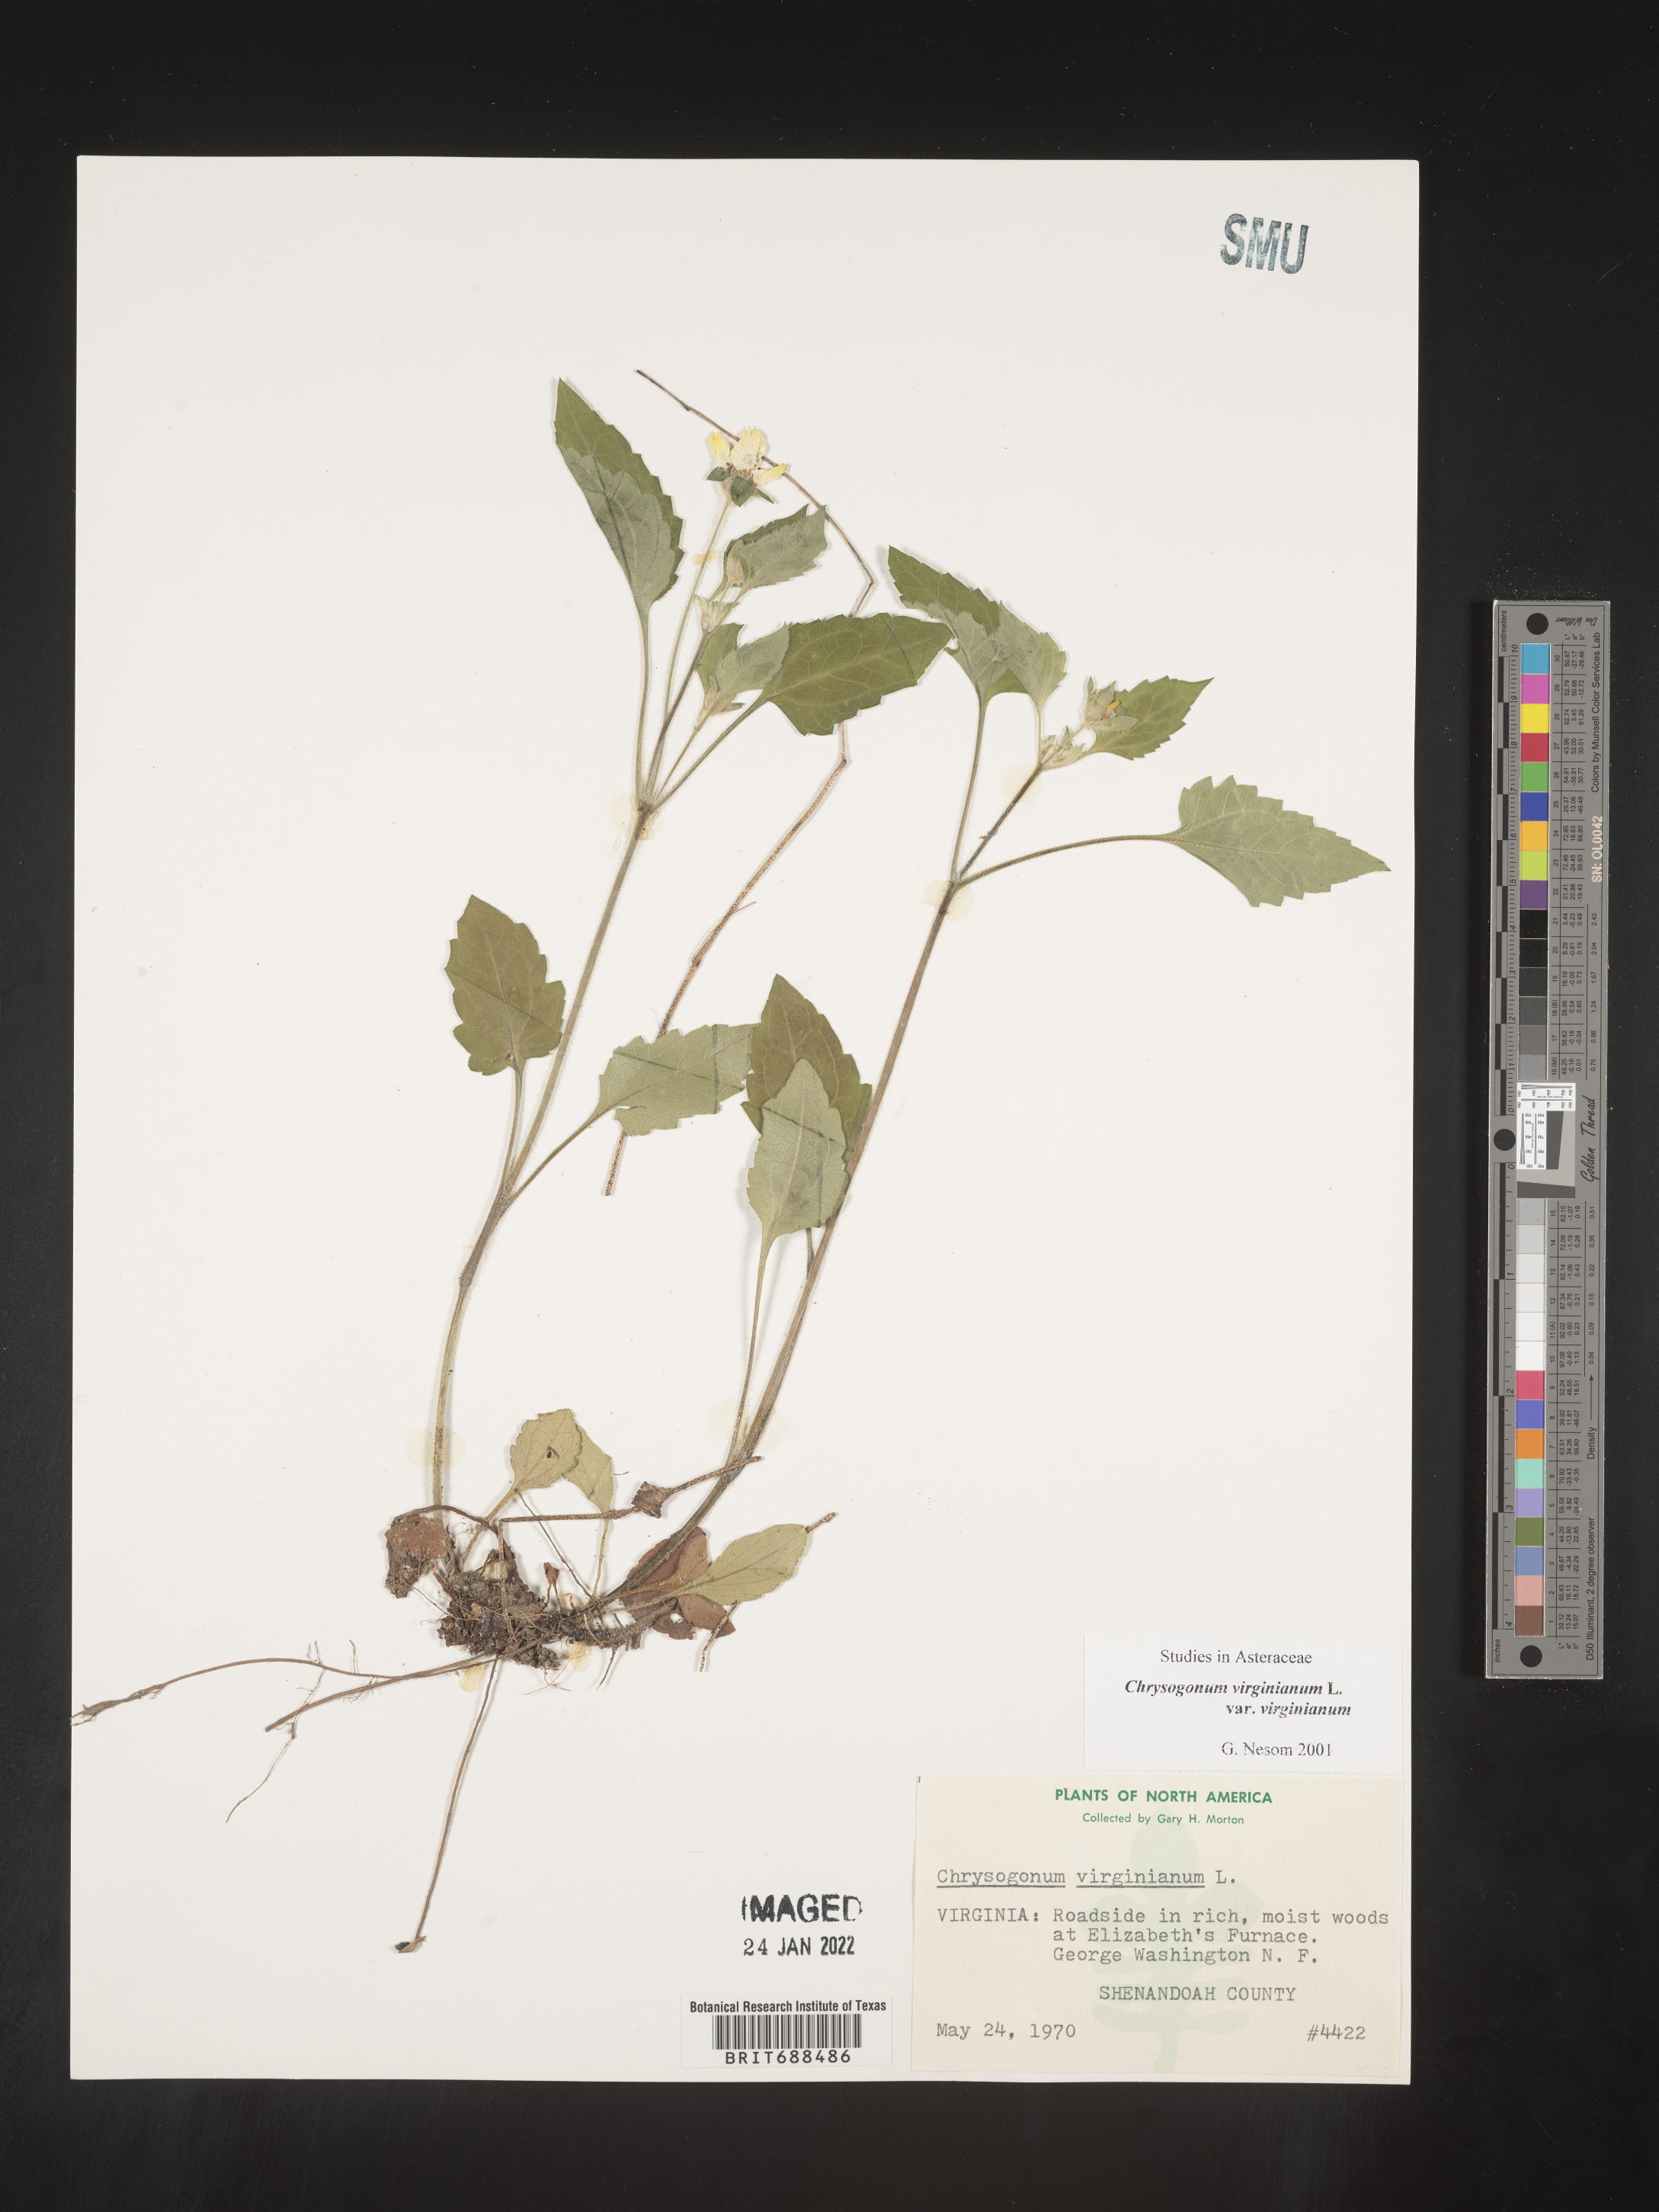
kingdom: Plantae
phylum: Tracheophyta
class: Magnoliopsida
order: Asterales
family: Asteraceae
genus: Chrysogonum
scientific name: Chrysogonum virginianum
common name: Golden-knee
